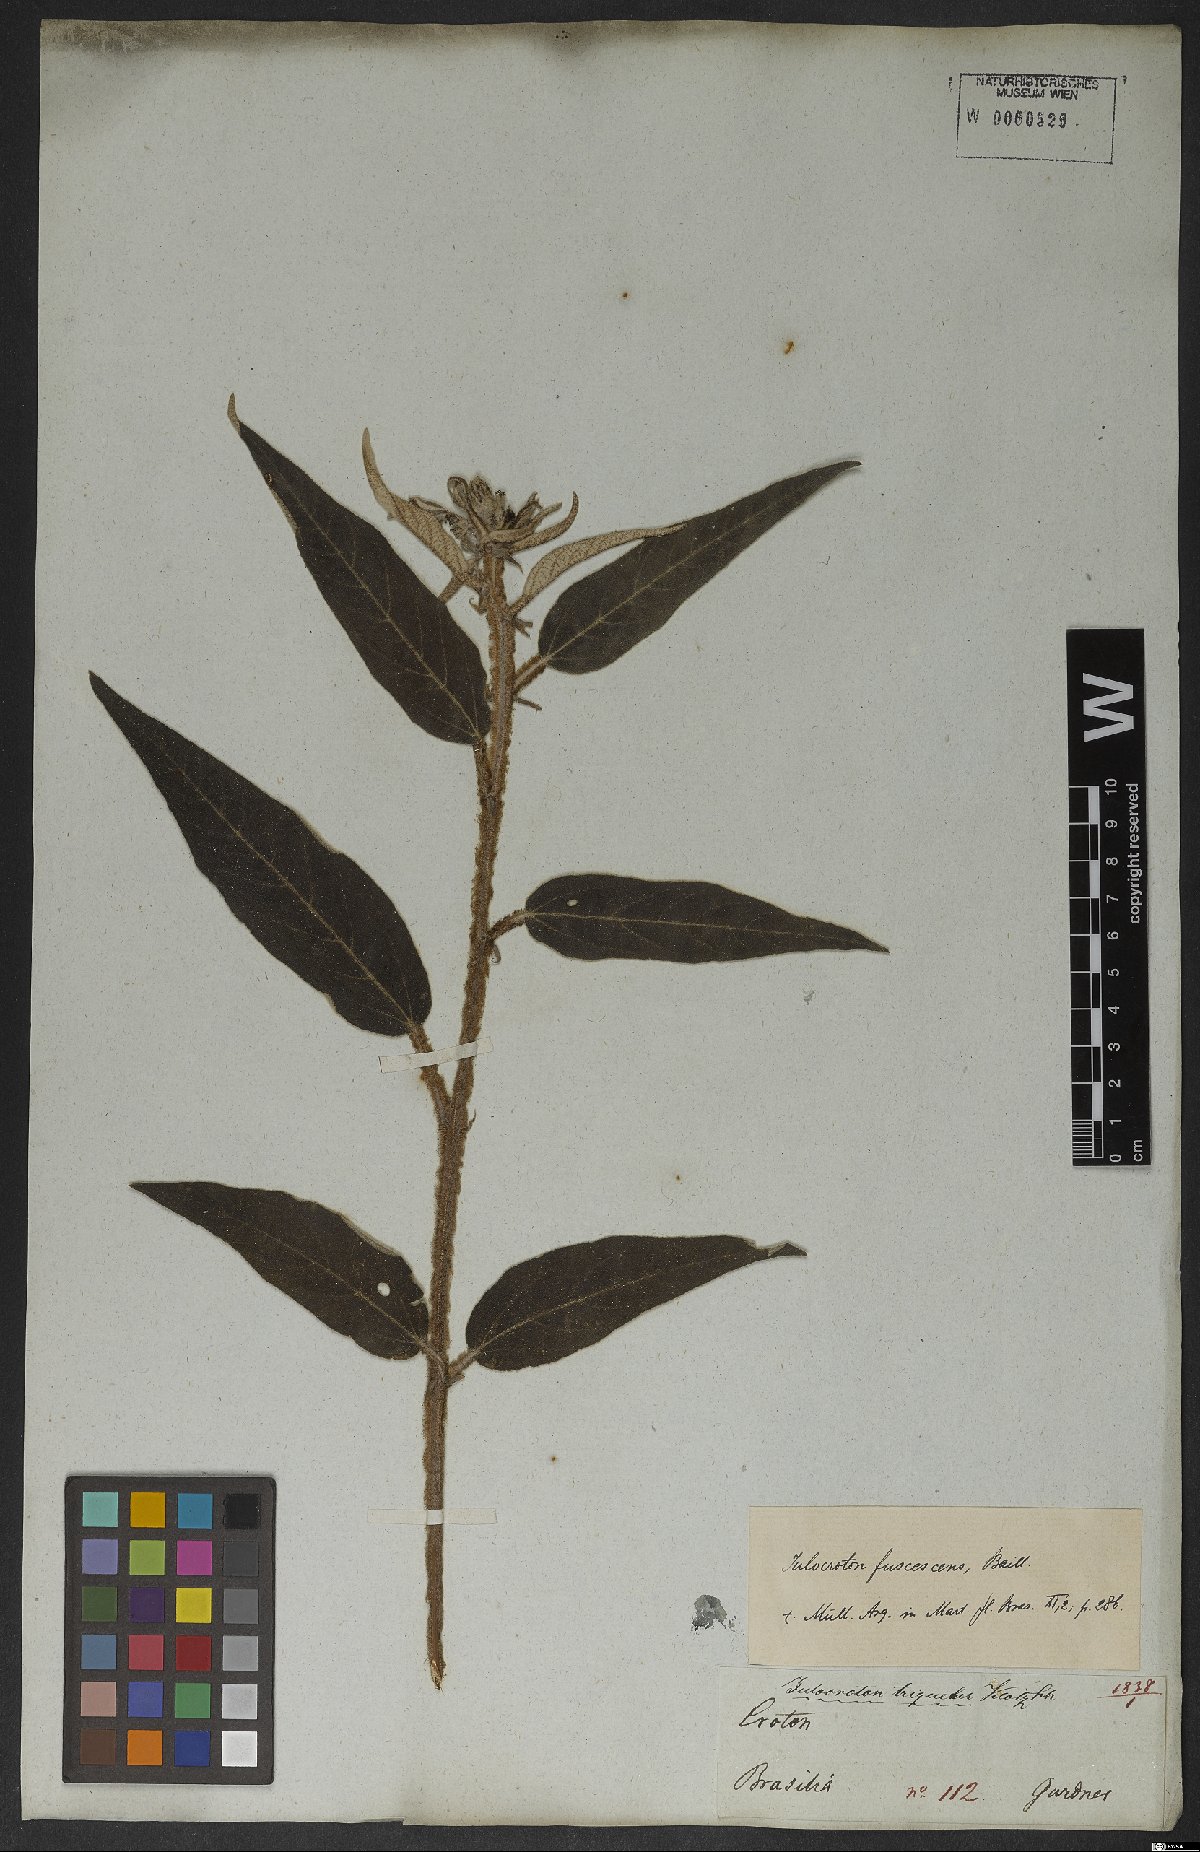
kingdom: Plantae
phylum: Tracheophyta
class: Magnoliopsida
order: Malpighiales
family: Euphorbiaceae
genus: Croton
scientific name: Croton gnaphaloides
